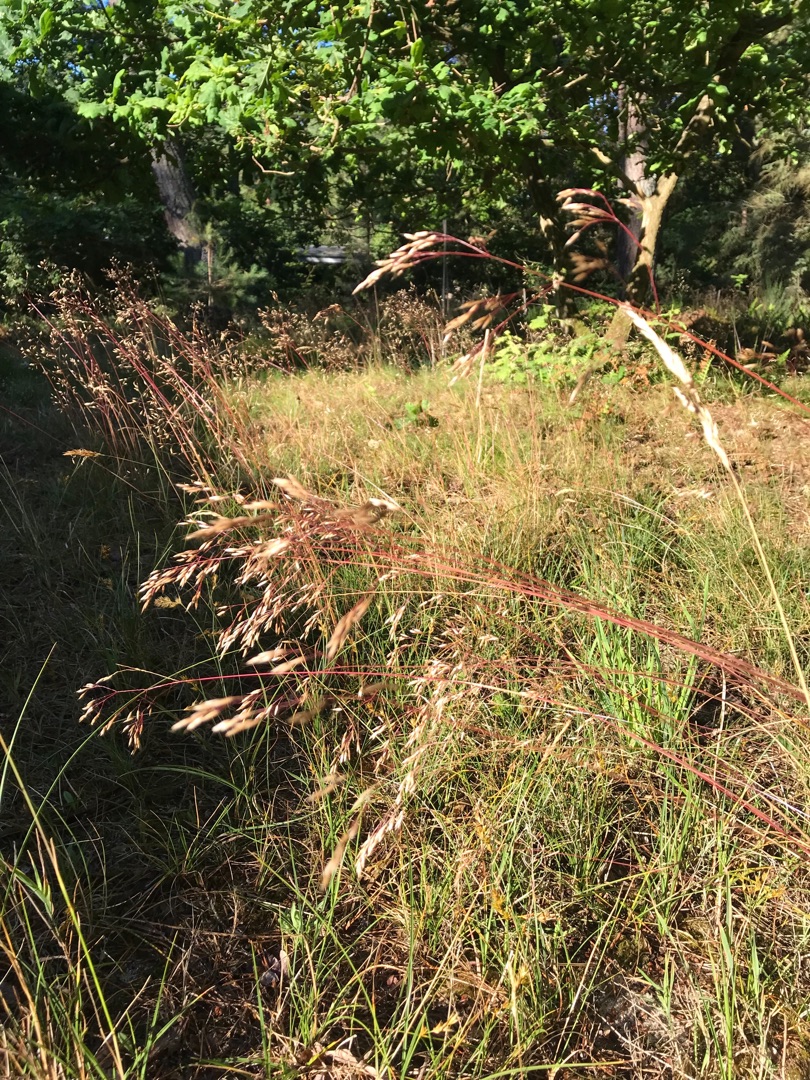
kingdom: Plantae
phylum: Tracheophyta
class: Liliopsida
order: Poales
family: Poaceae
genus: Avenella
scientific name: Avenella flexuosa
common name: Bølget bunke
